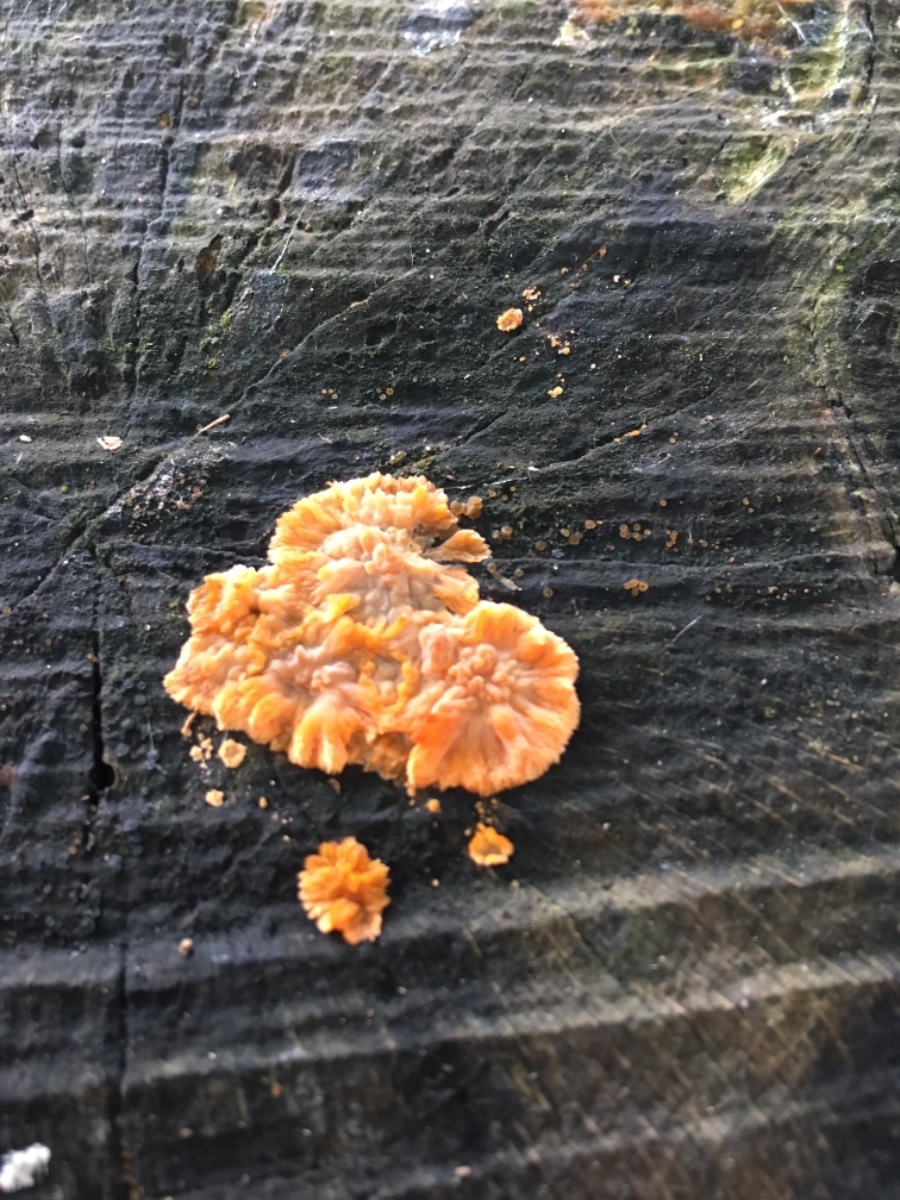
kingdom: Fungi
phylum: Basidiomycota
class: Agaricomycetes
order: Polyporales
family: Meruliaceae
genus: Phlebia
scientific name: Phlebia radiata
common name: stråle-åresvamp
